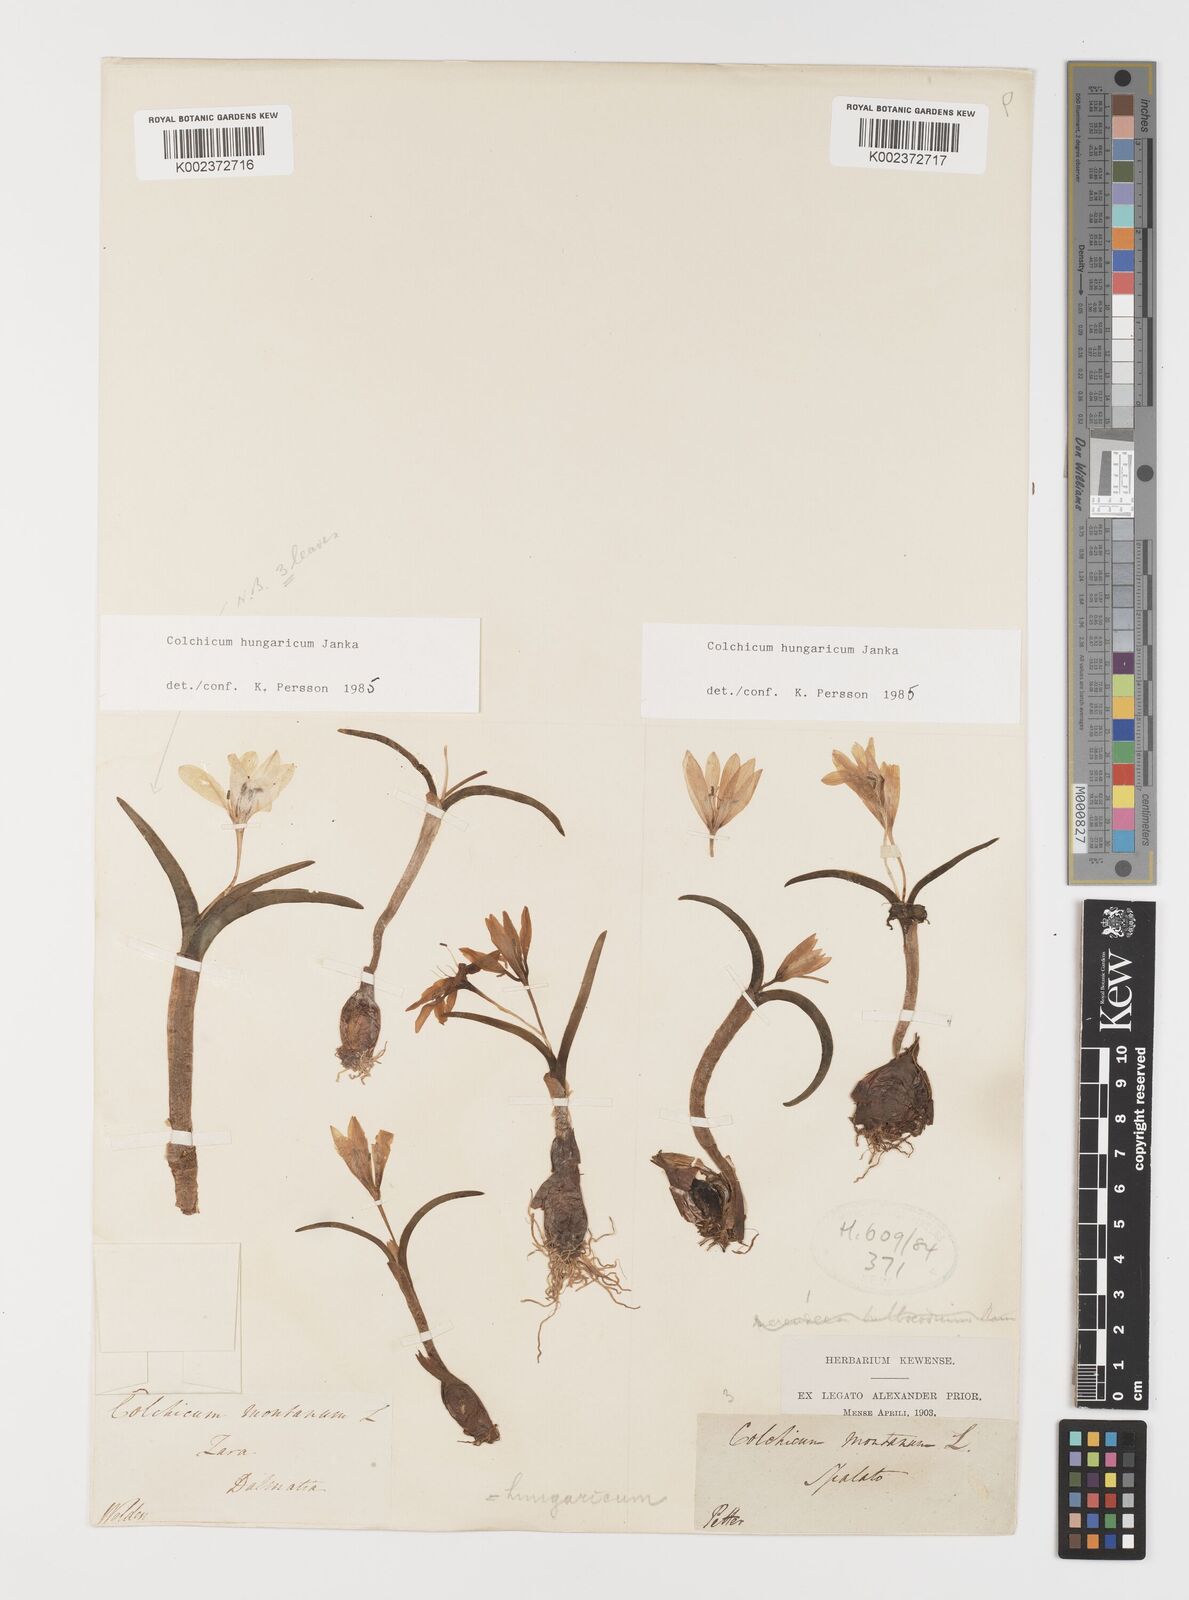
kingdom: Plantae
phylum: Tracheophyta
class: Liliopsida
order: Liliales
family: Colchicaceae
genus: Colchicum
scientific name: Colchicum hungaricum
